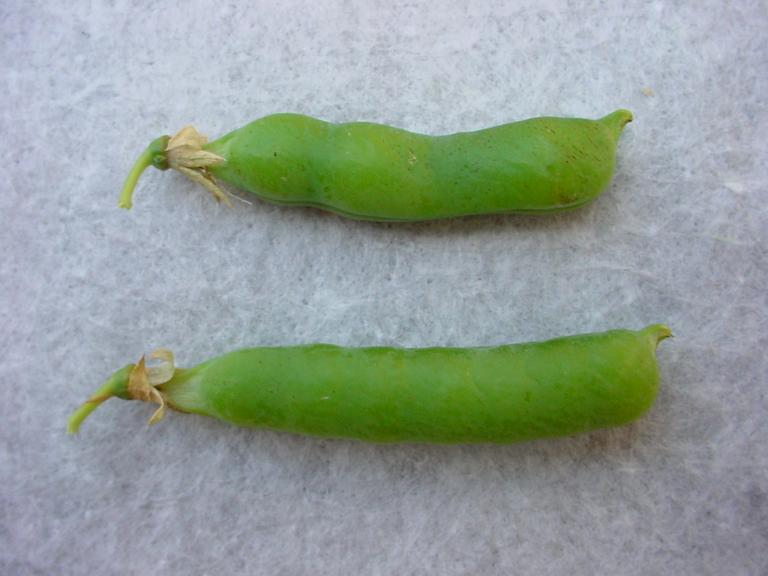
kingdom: Plantae
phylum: Tracheophyta
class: Magnoliopsida
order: Fabales
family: Fabaceae
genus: Lathyrus
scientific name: Lathyrus oleraceus
